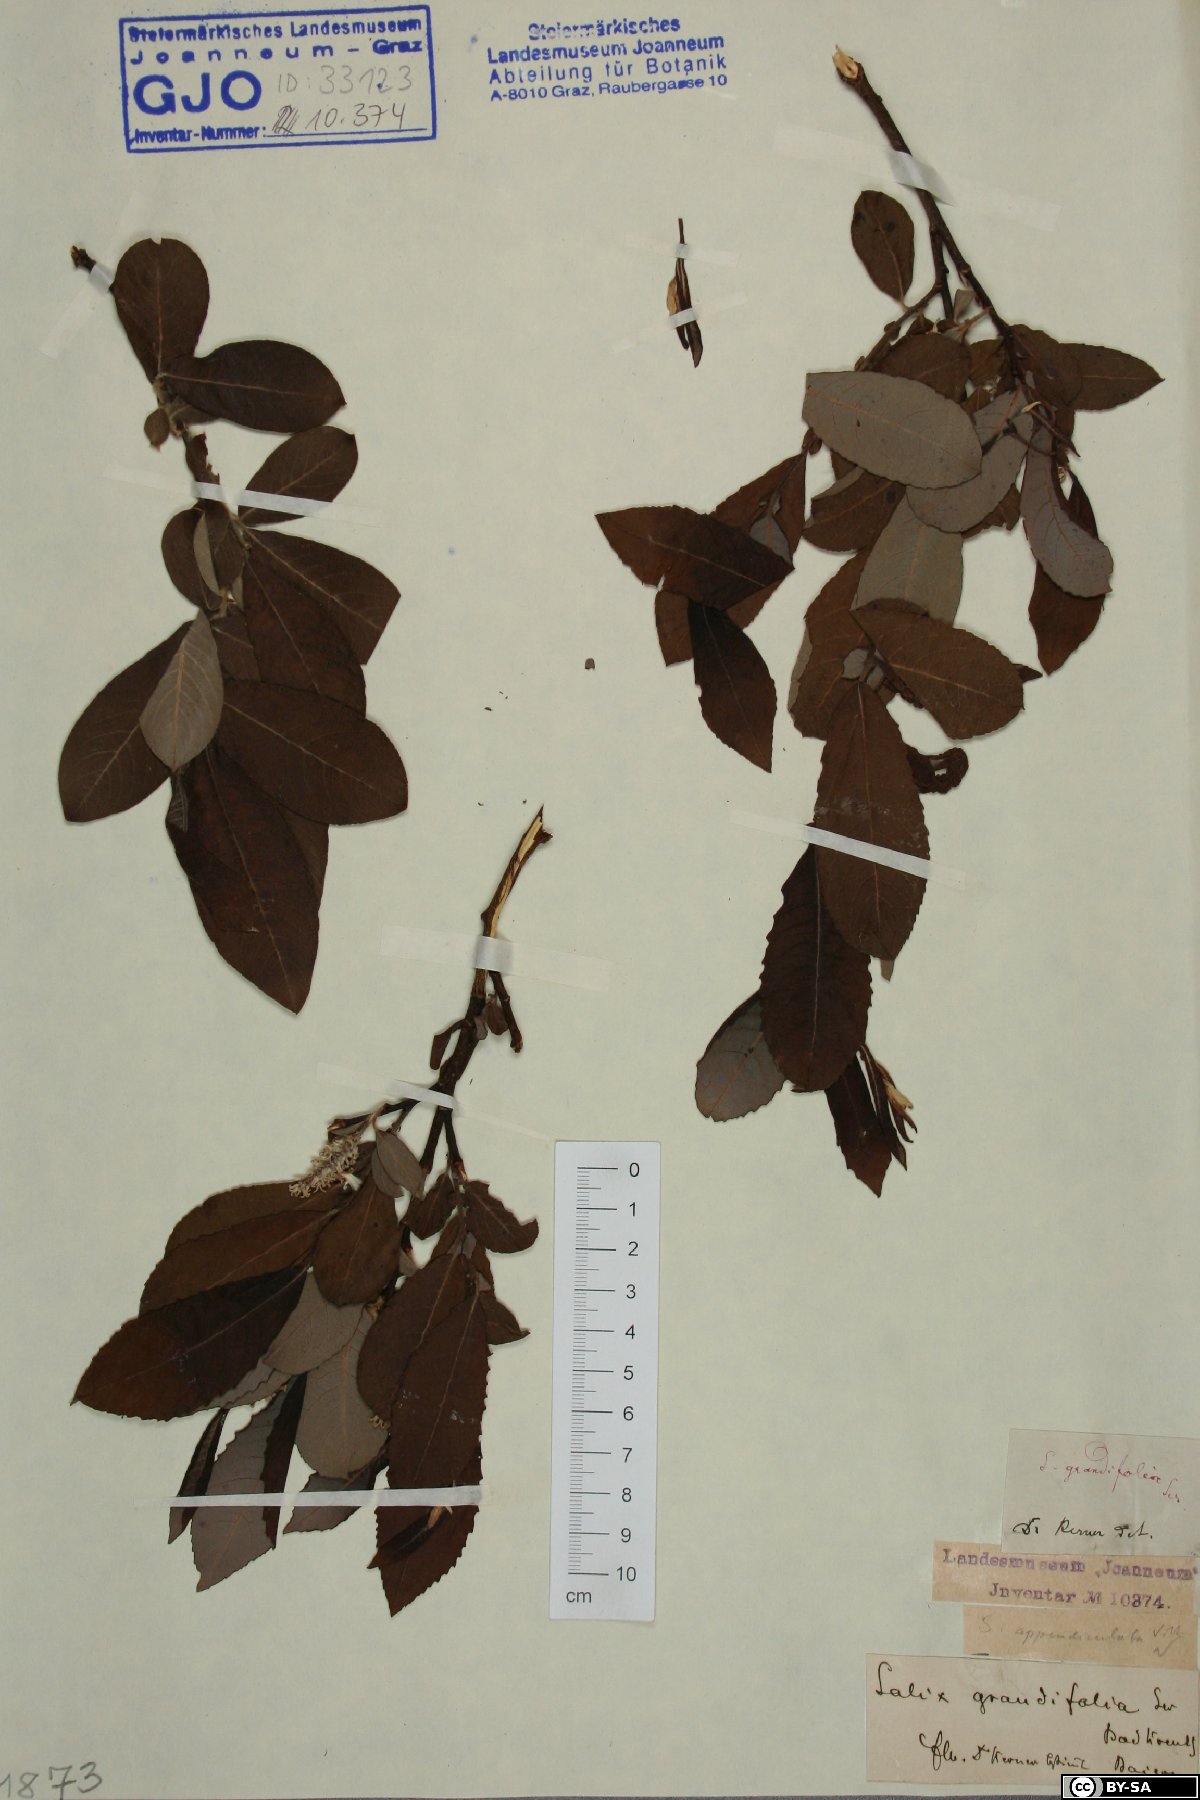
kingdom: Plantae
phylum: Tracheophyta
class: Magnoliopsida
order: Malpighiales
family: Salicaceae
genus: Salix
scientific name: Salix appendiculata
